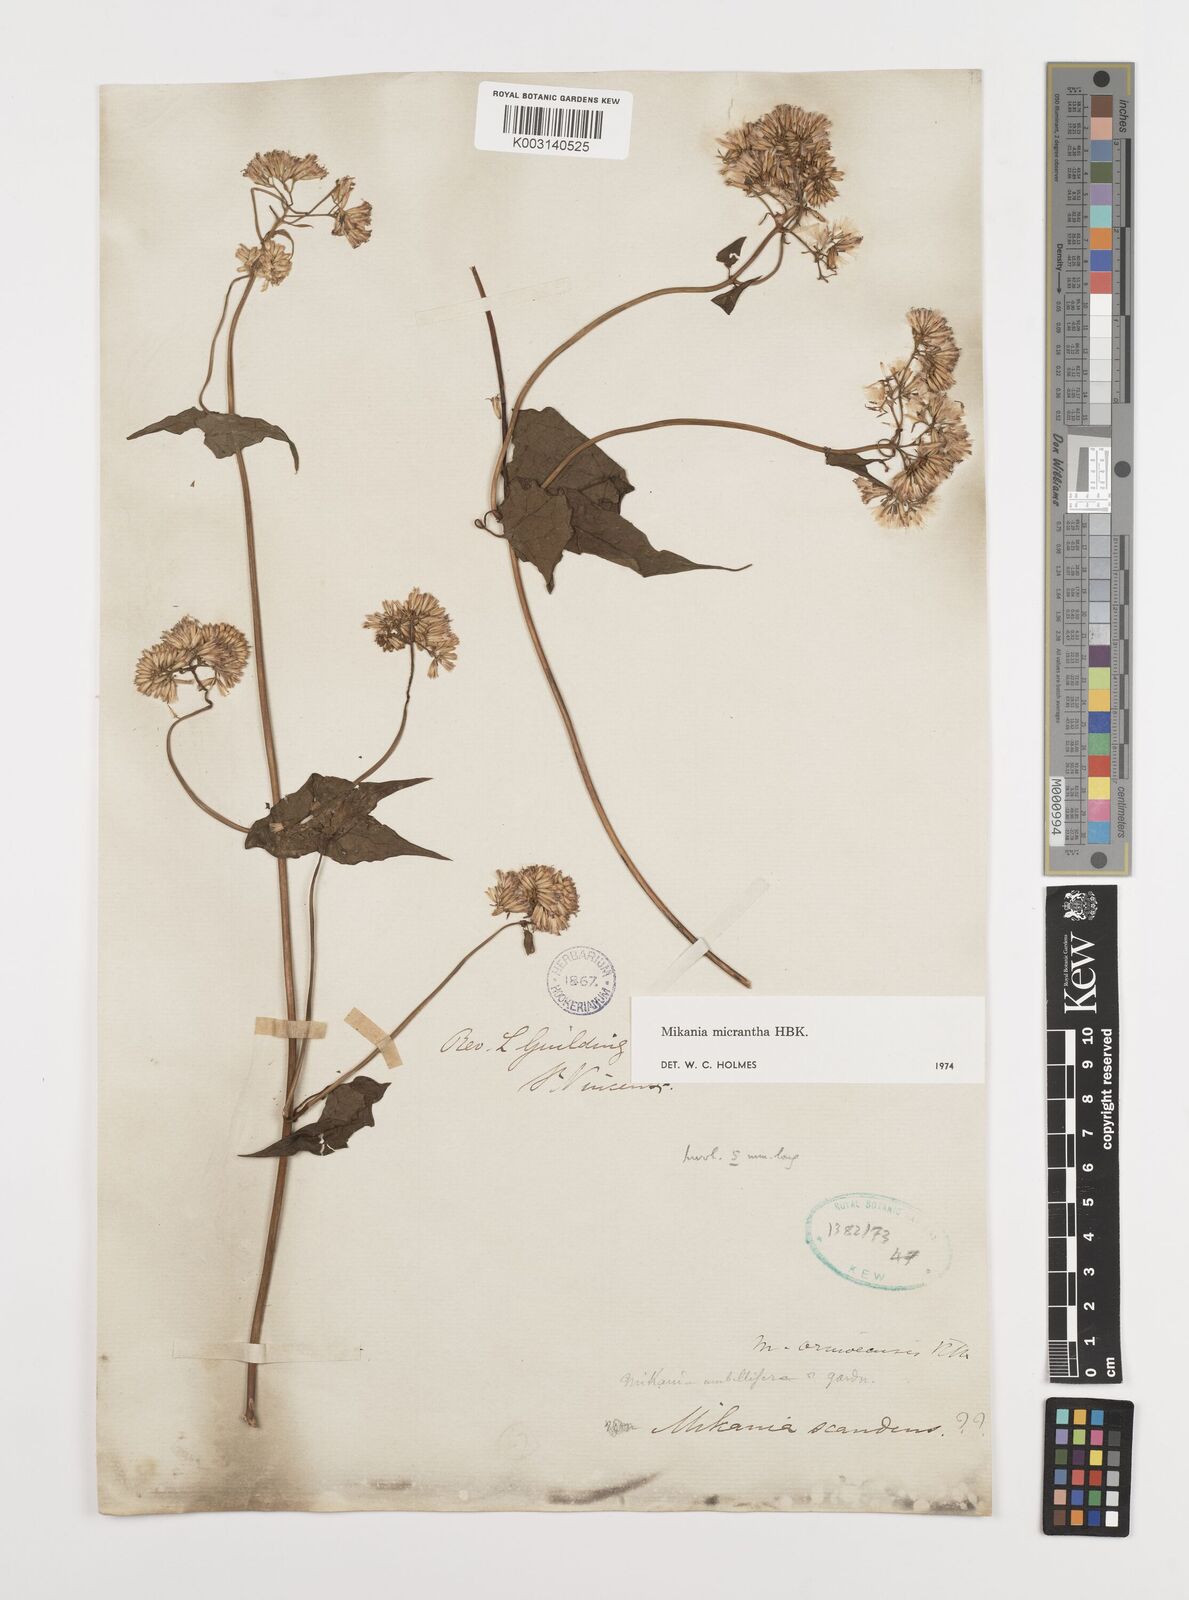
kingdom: Plantae
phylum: Tracheophyta
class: Magnoliopsida
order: Asterales
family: Asteraceae
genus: Mikania
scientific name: Mikania micrantha
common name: Mile-a-minute
